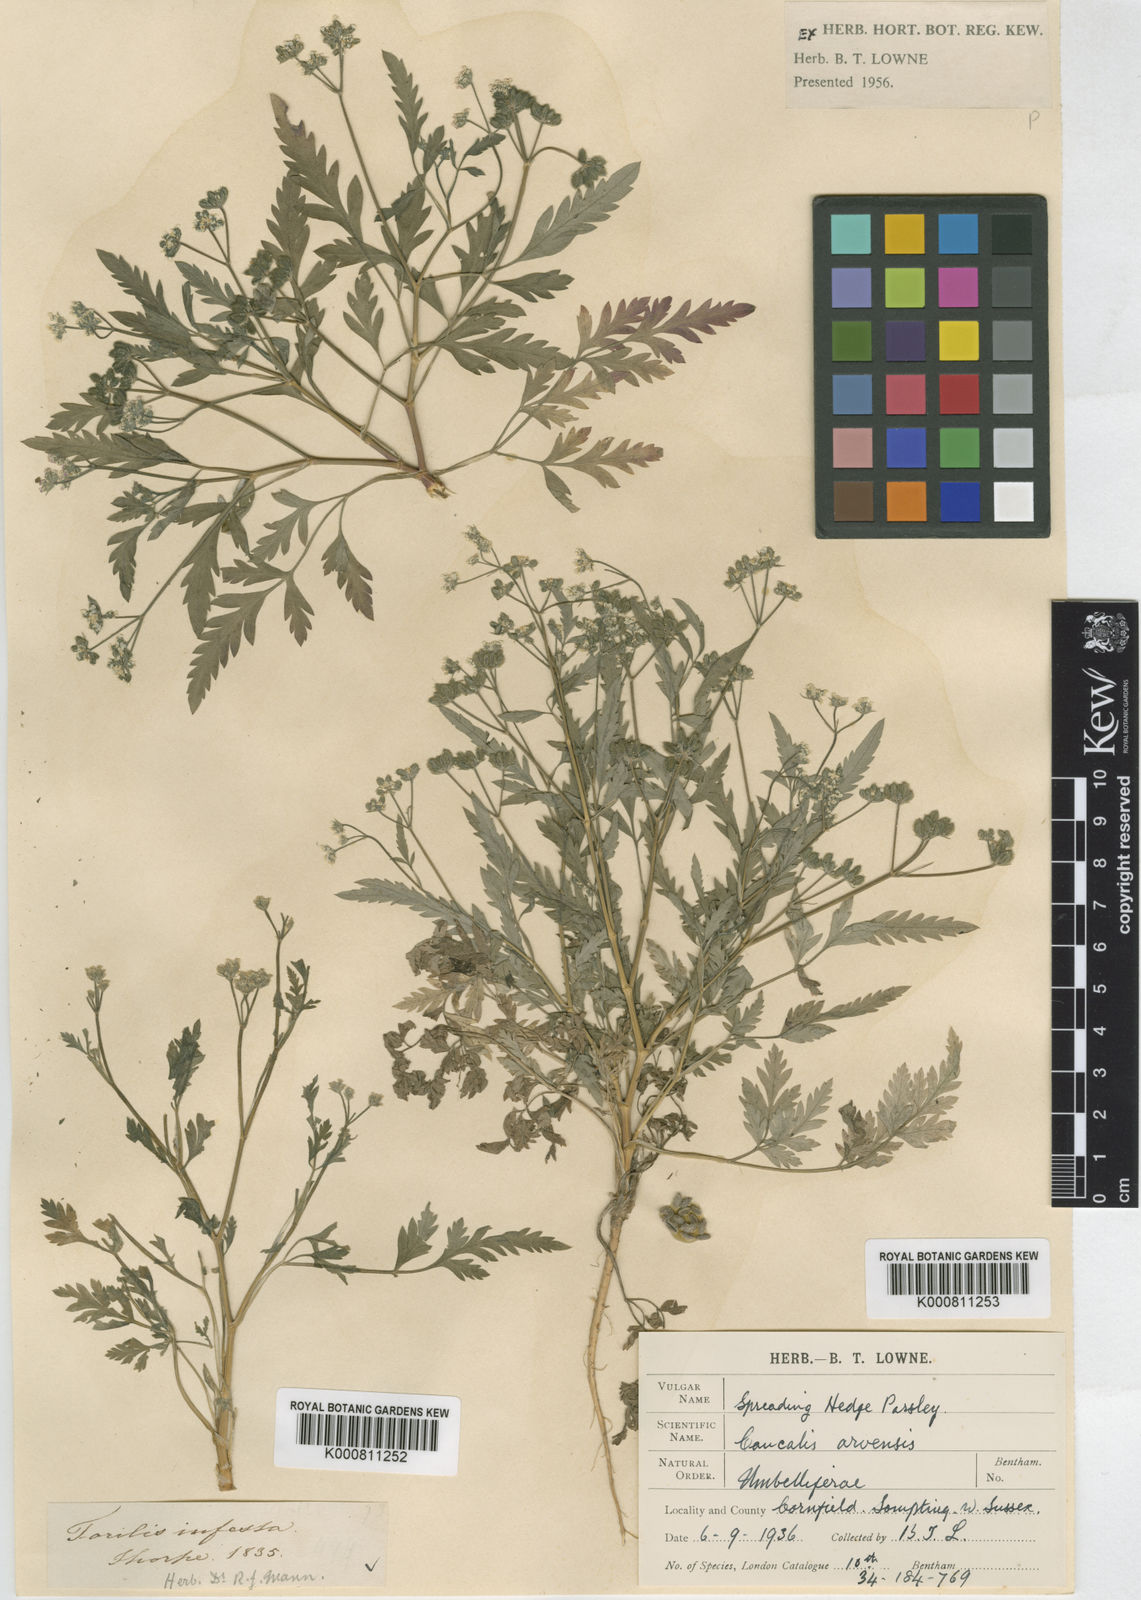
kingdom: Plantae
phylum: Tracheophyta
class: Magnoliopsida
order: Apiales
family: Apiaceae
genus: Torilis
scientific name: Torilis arvensis
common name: Spreading hedge-parsley
